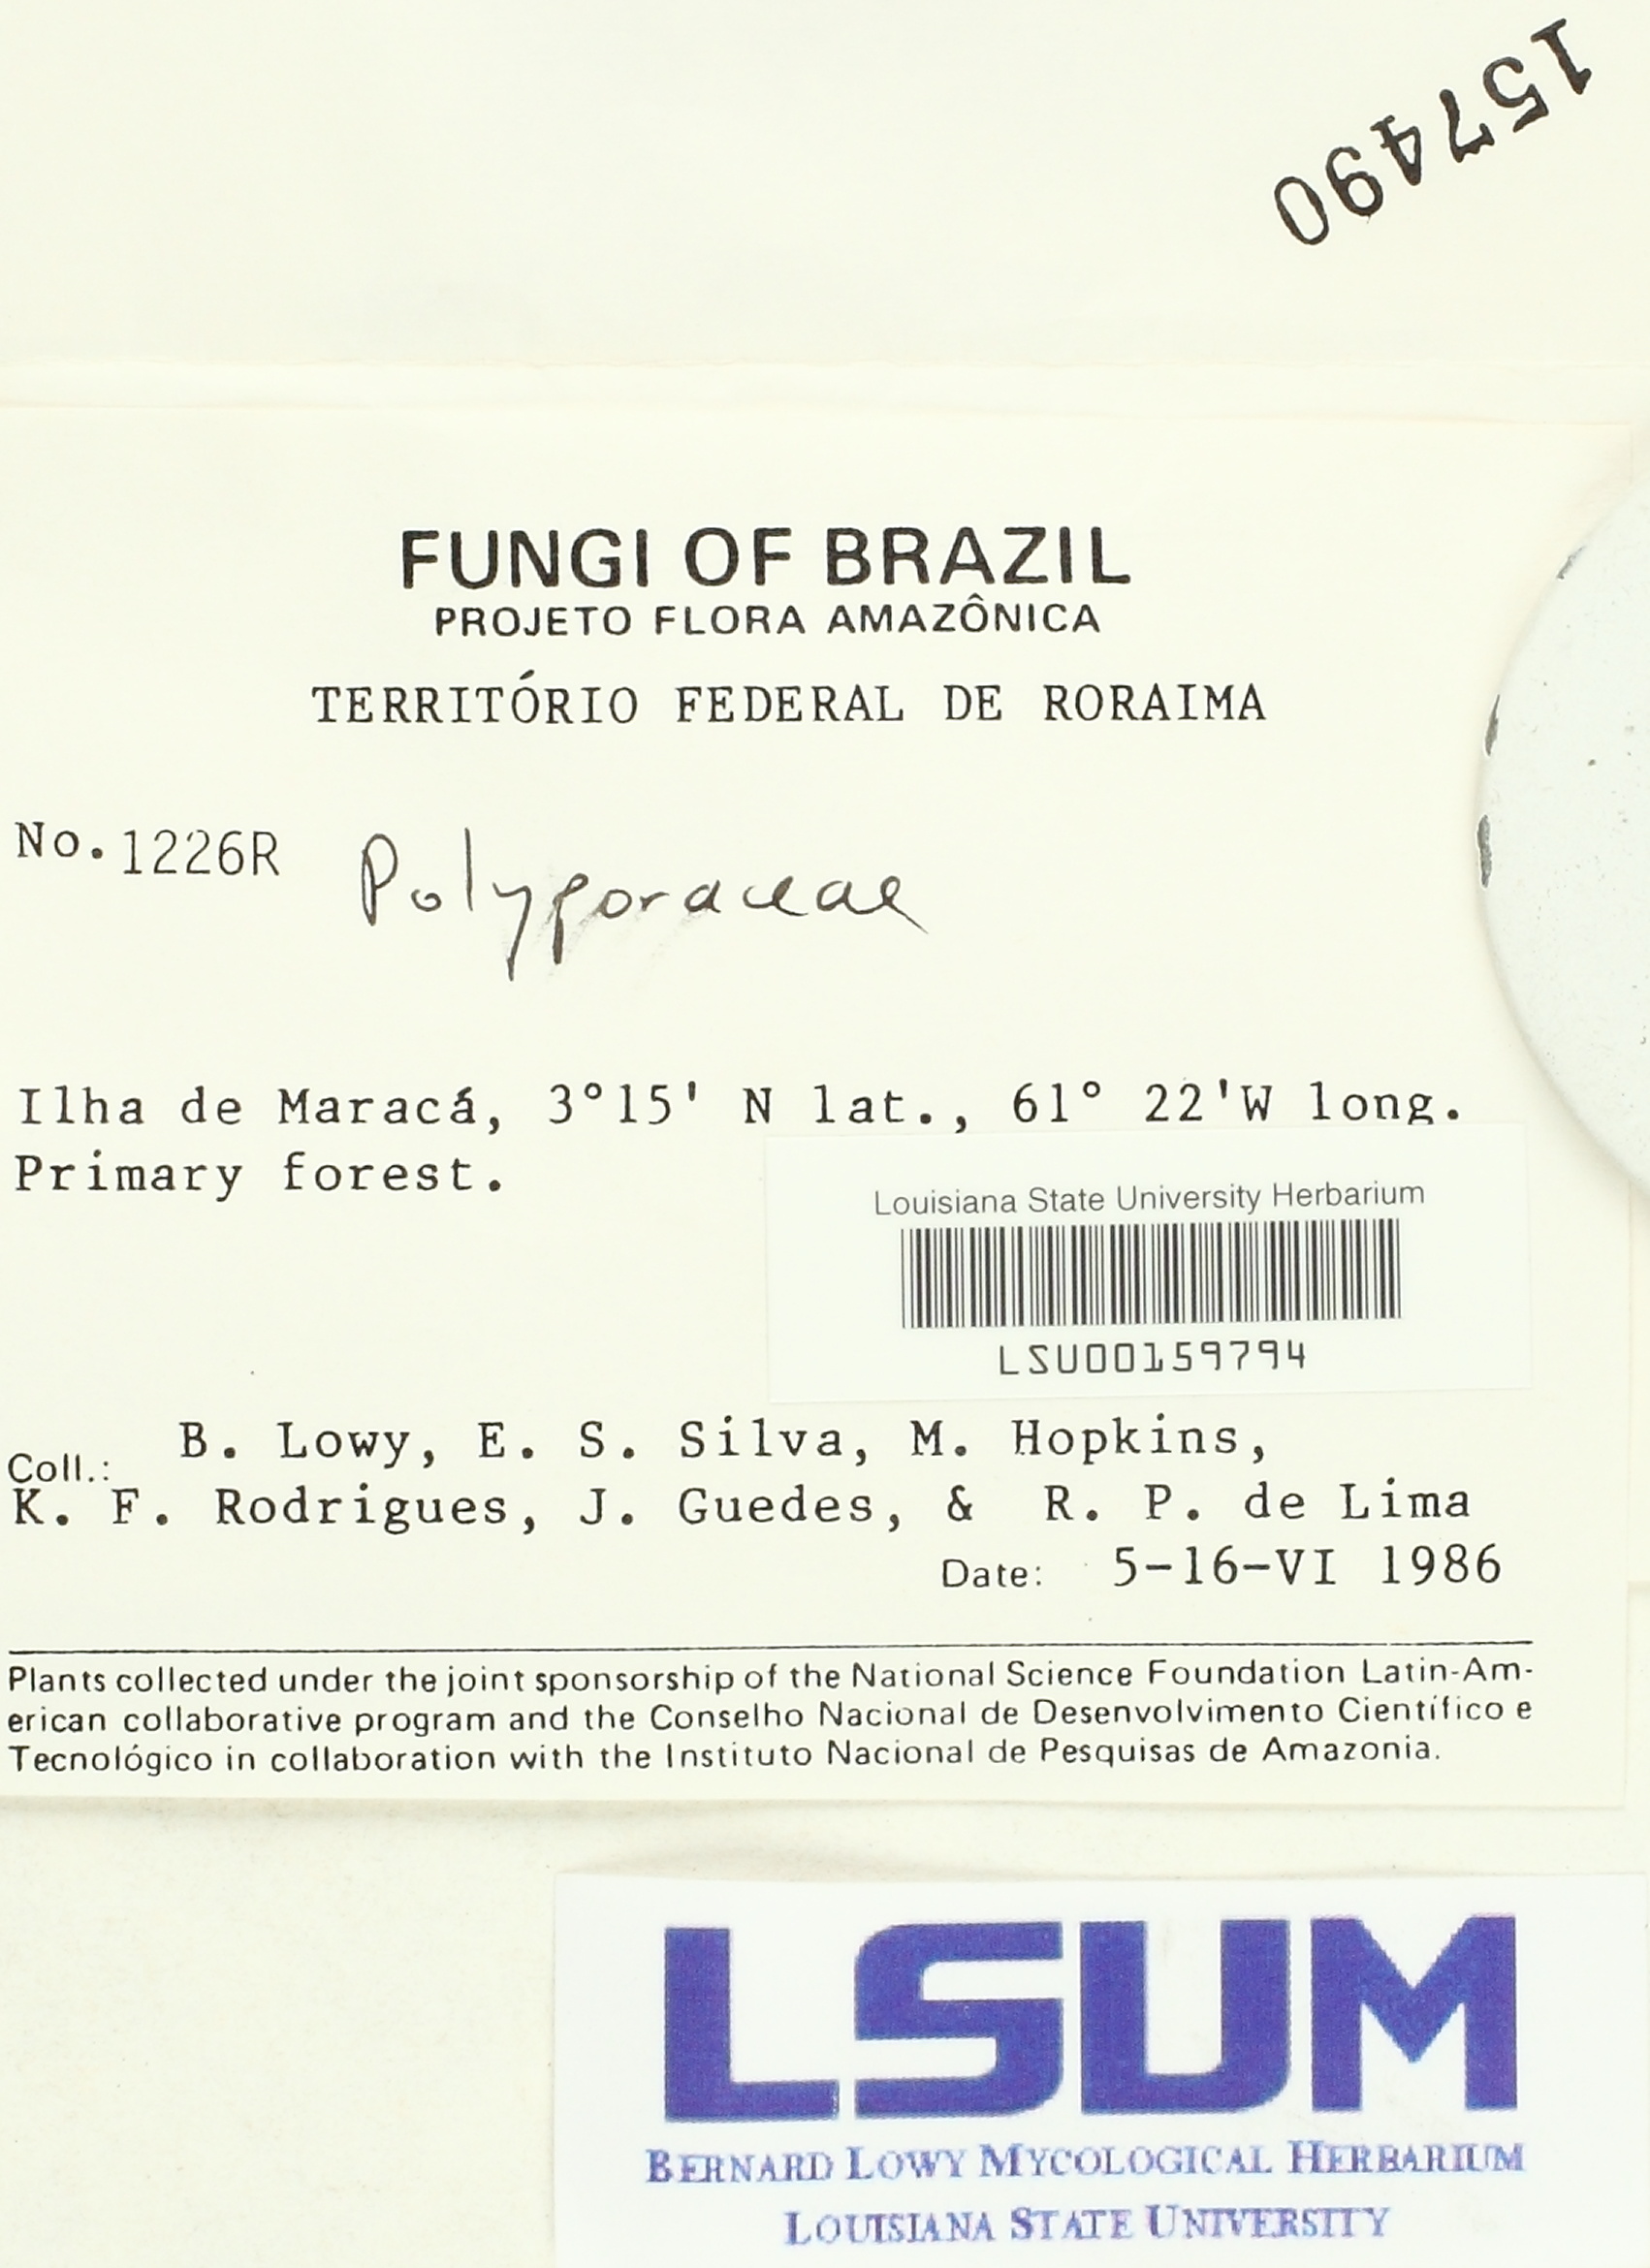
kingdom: Fungi
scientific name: Fungi
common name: Fungi
